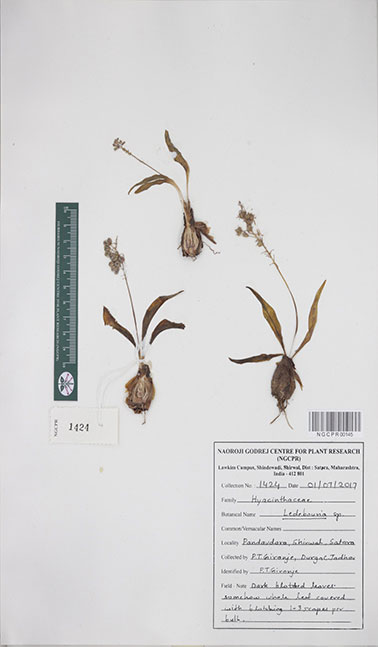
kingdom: Plantae
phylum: Tracheophyta
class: Liliopsida
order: Asparagales
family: Asparagaceae
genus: Ledebouria
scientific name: Ledebouria
